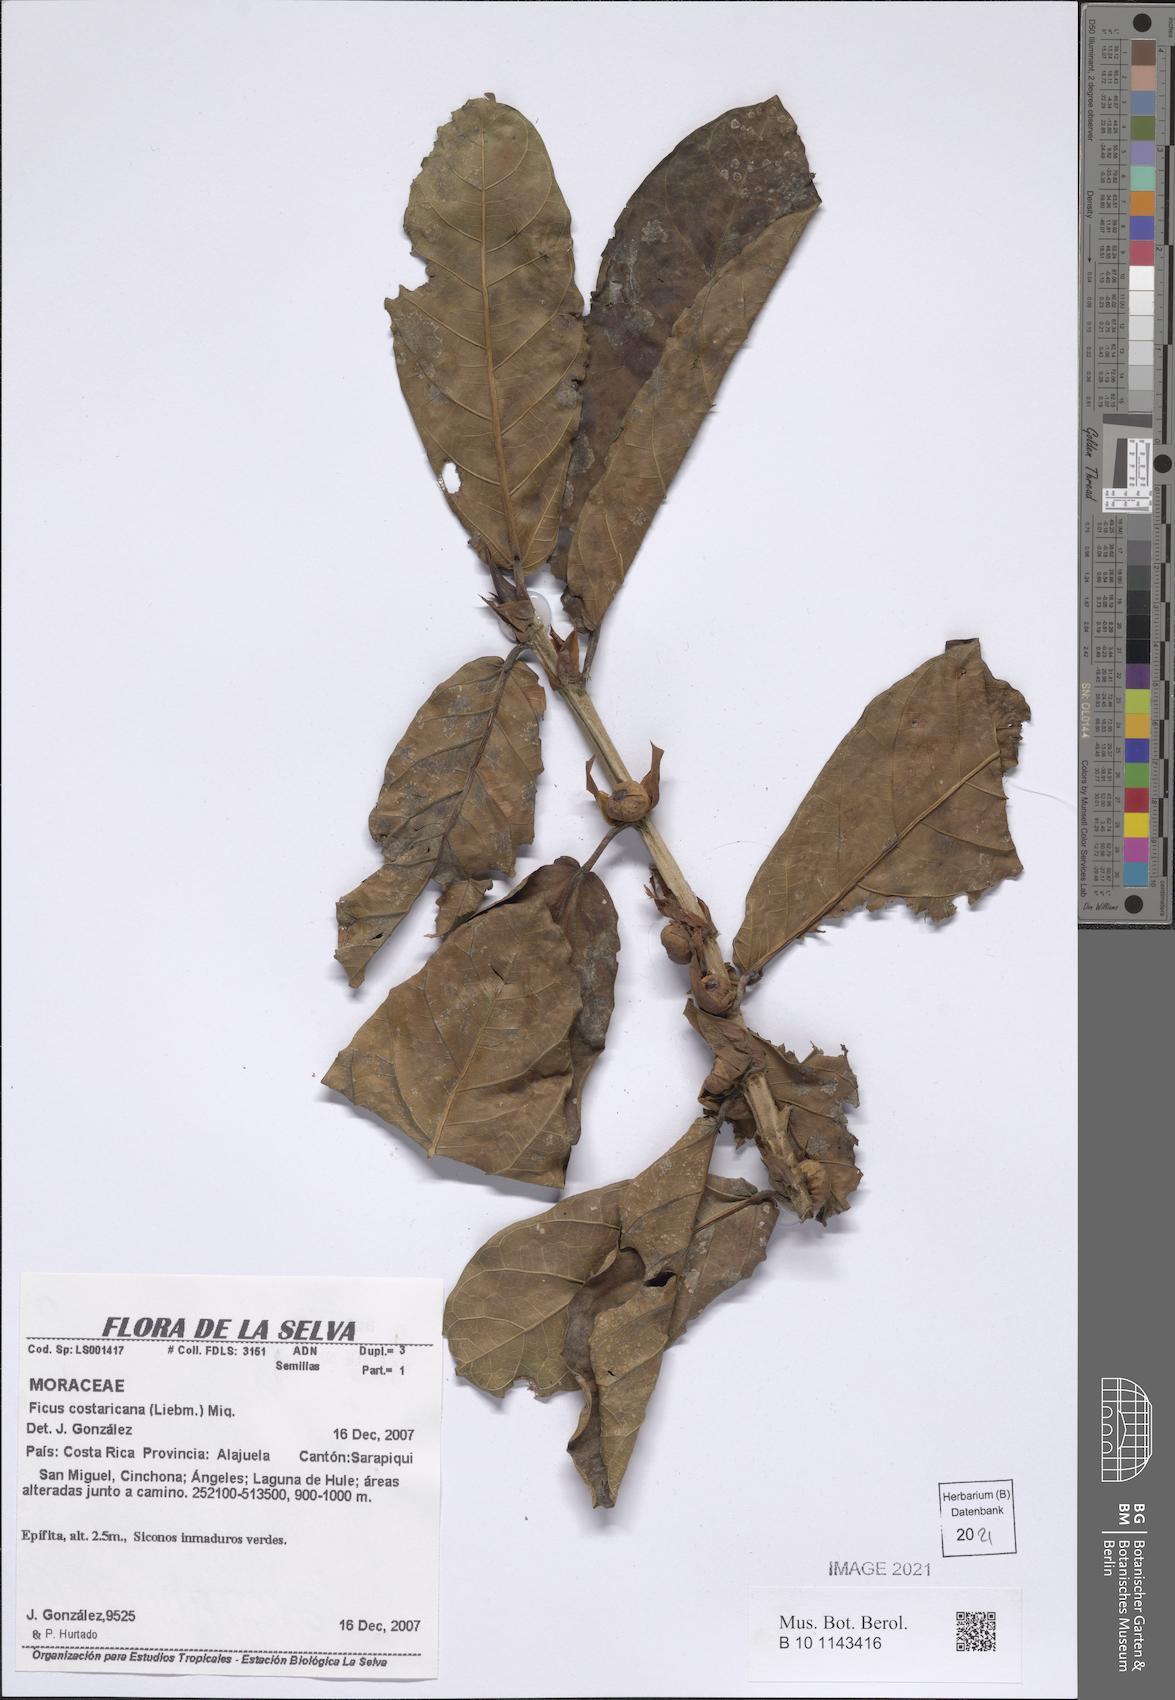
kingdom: Plantae
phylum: Tracheophyta
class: Magnoliopsida
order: Rosales
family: Moraceae
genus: Ficus
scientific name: Ficus costaricana
